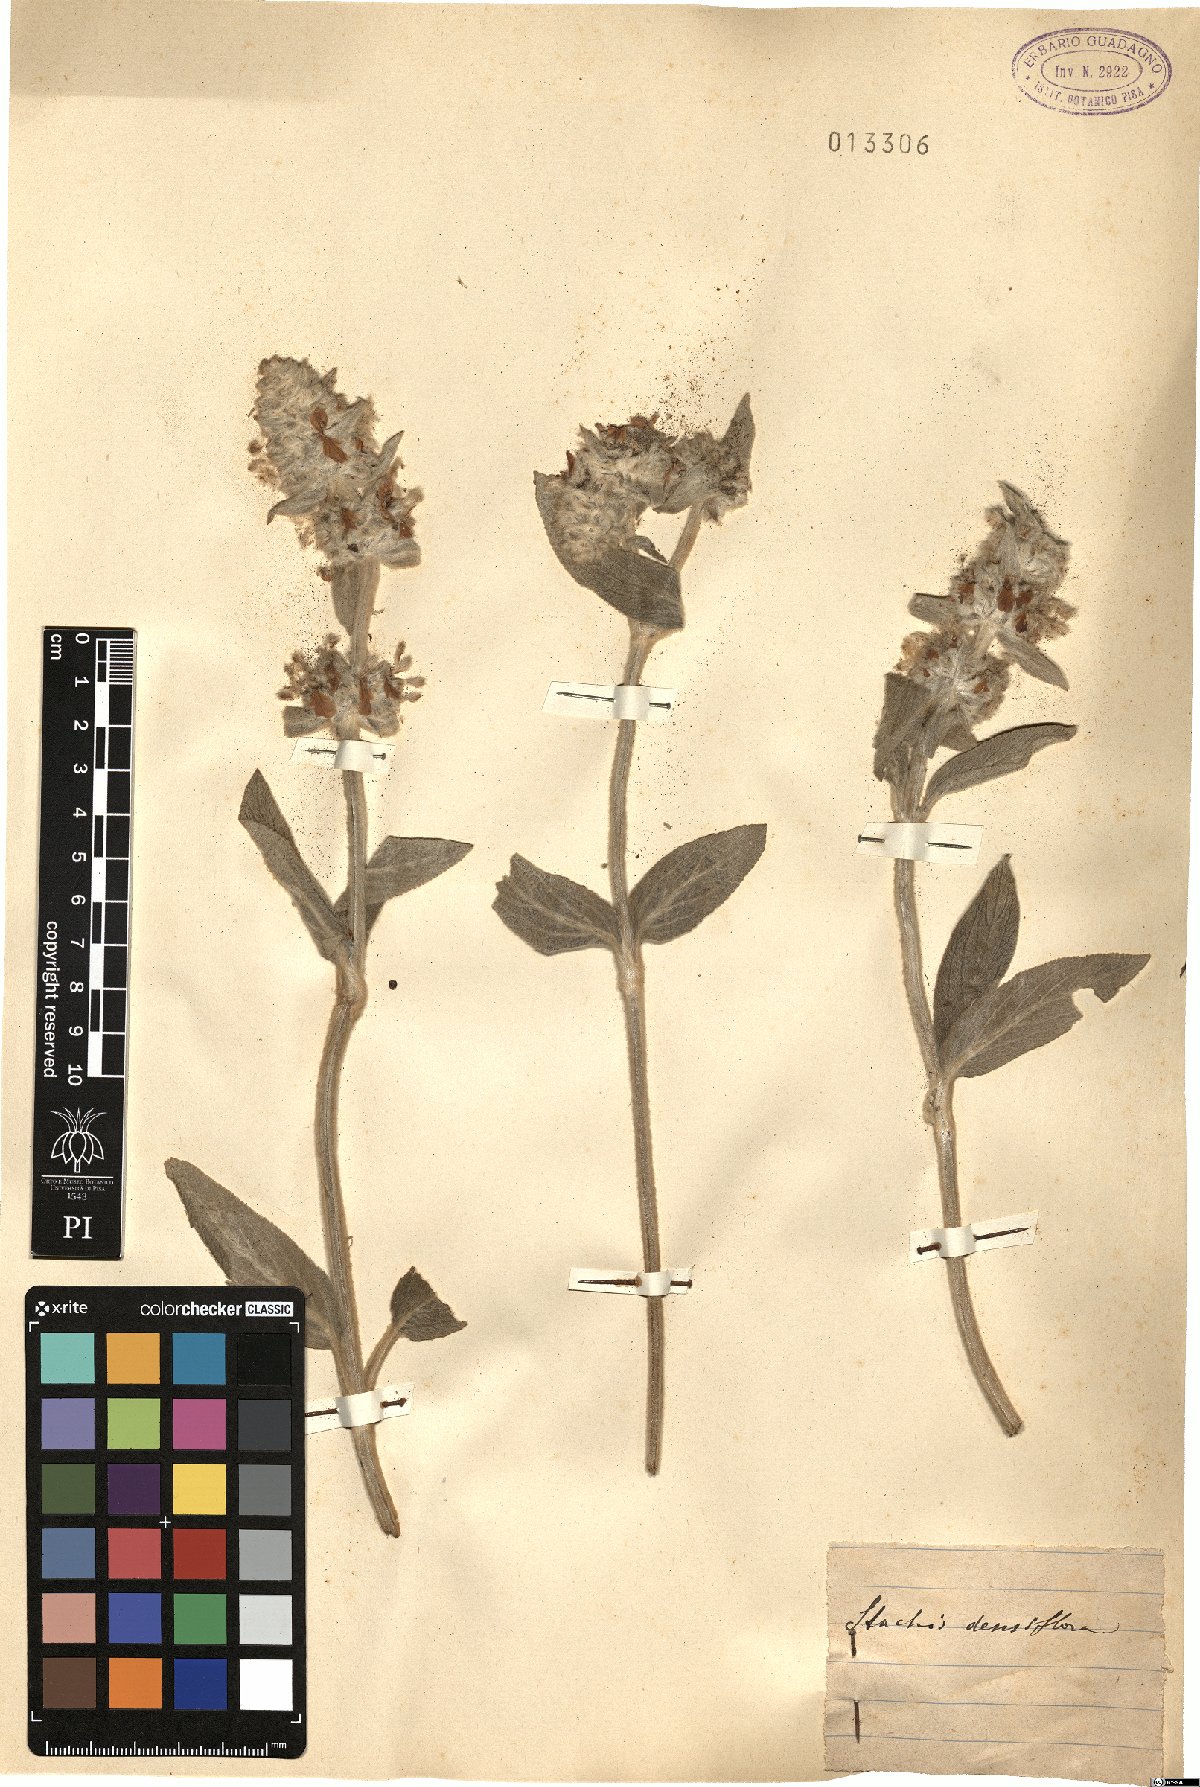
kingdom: Plantae
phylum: Tracheophyta
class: Magnoliopsida
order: Lamiales
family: Lamiaceae
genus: Betonica
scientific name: Betonica officinalis
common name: Bishop's-wort
